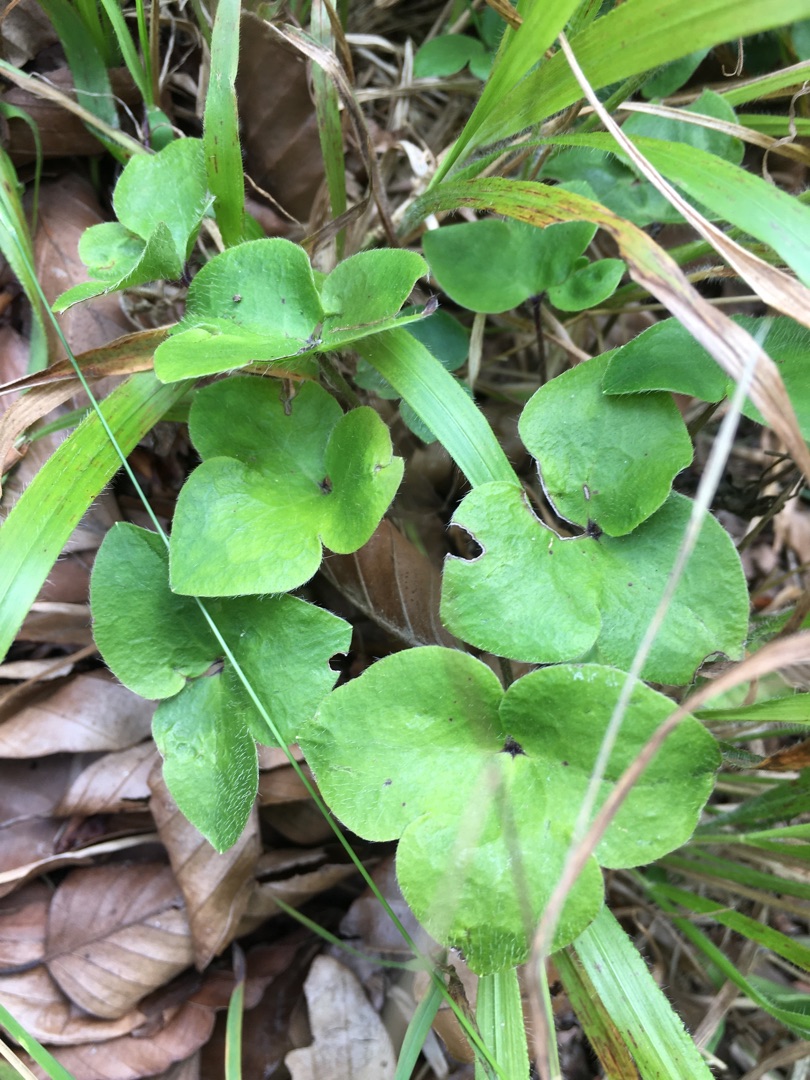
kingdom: Plantae
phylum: Tracheophyta
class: Magnoliopsida
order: Ranunculales
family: Ranunculaceae
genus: Hepatica
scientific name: Hepatica nobilis
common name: Blå anemone
